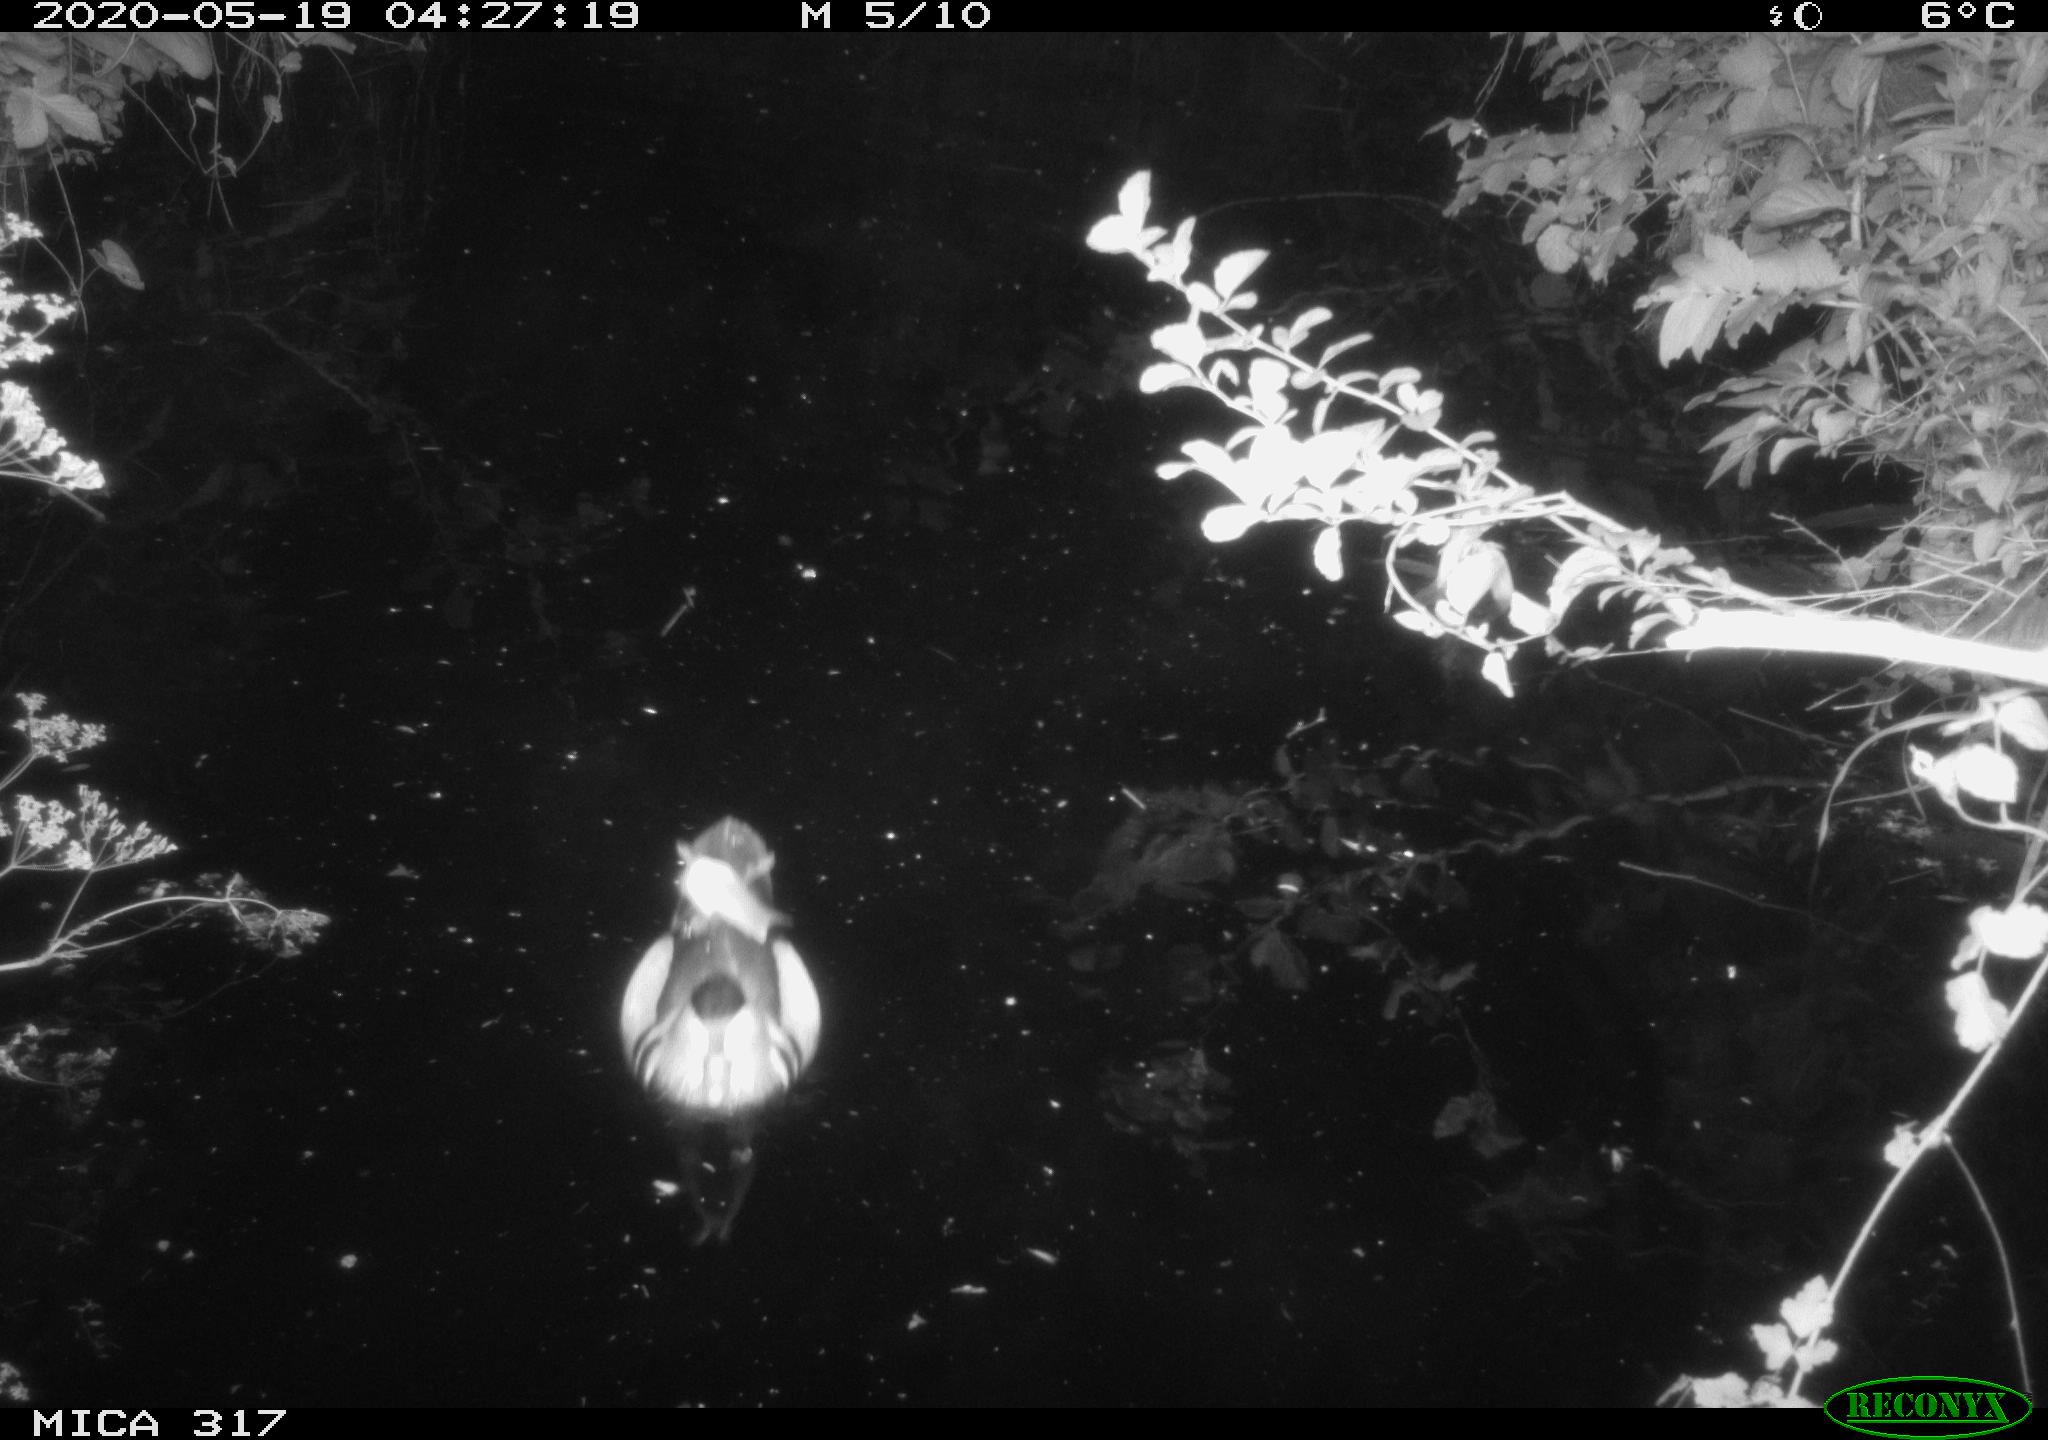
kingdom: Animalia
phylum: Chordata
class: Aves
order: Anseriformes
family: Anatidae
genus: Aix
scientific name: Aix galericulata
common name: Mandarin duck
